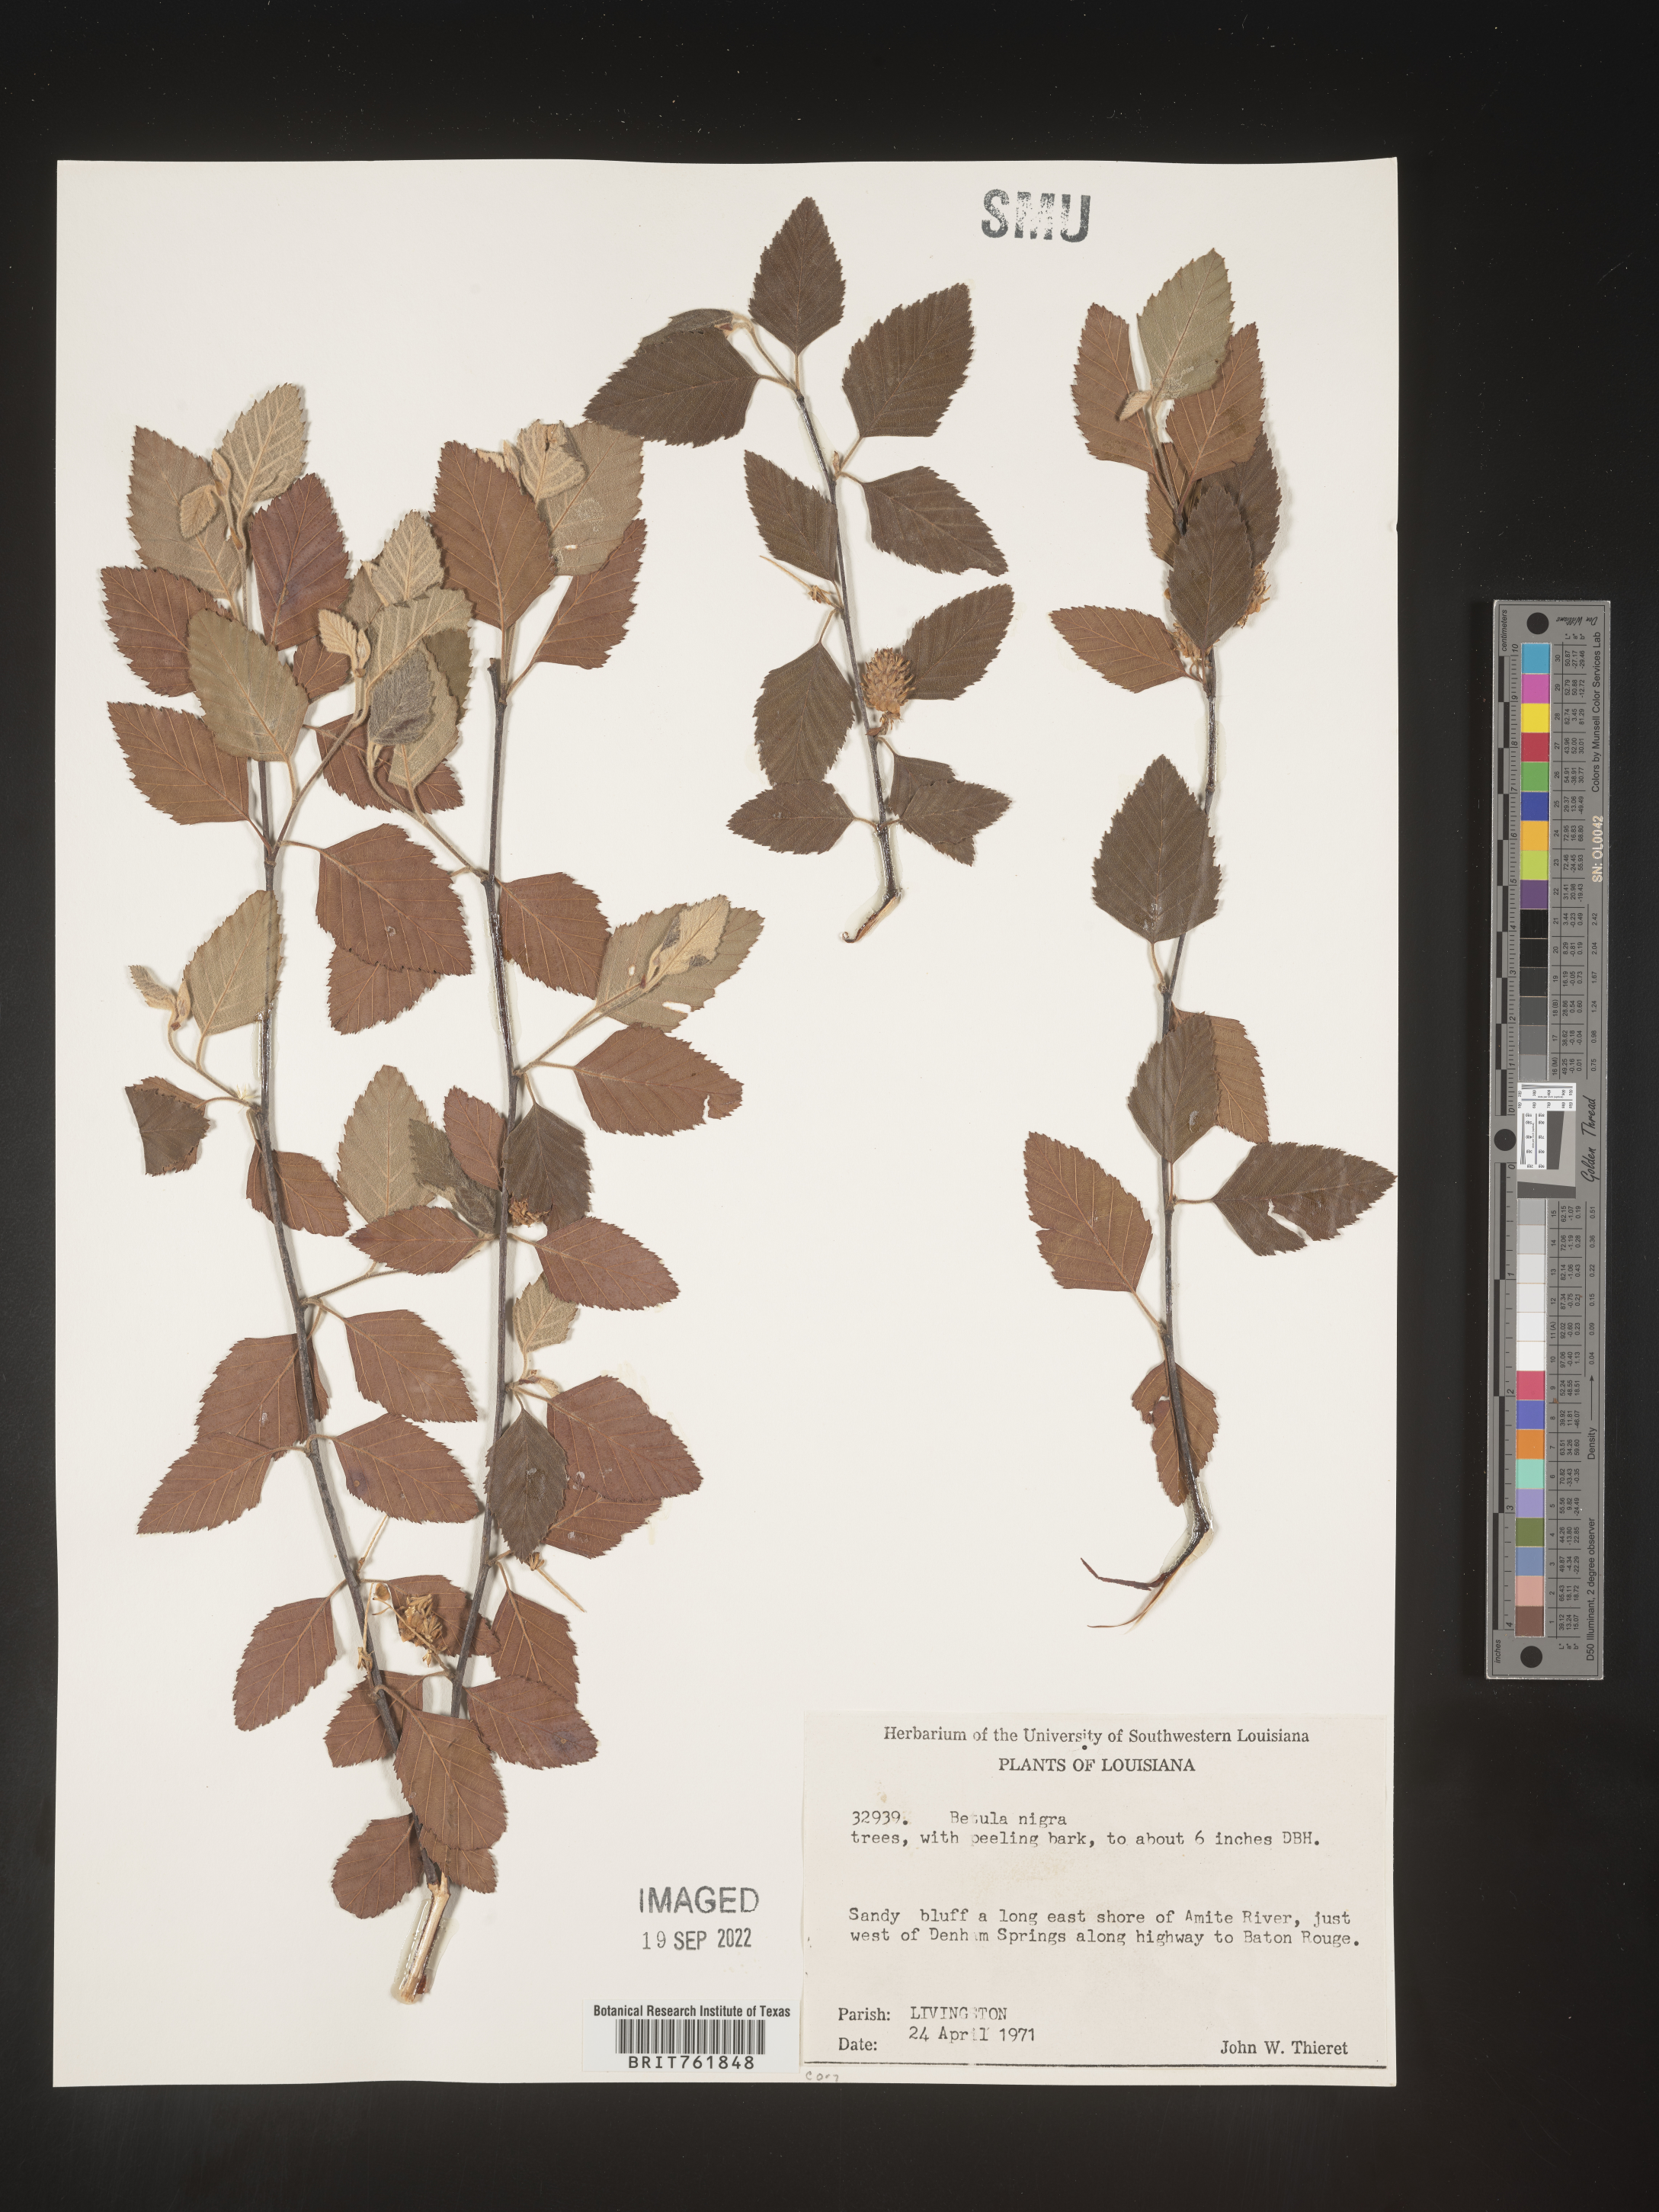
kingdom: Plantae
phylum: Tracheophyta
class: Magnoliopsida
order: Fagales
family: Betulaceae
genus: Betula
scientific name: Betula nigra
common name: Black birch
